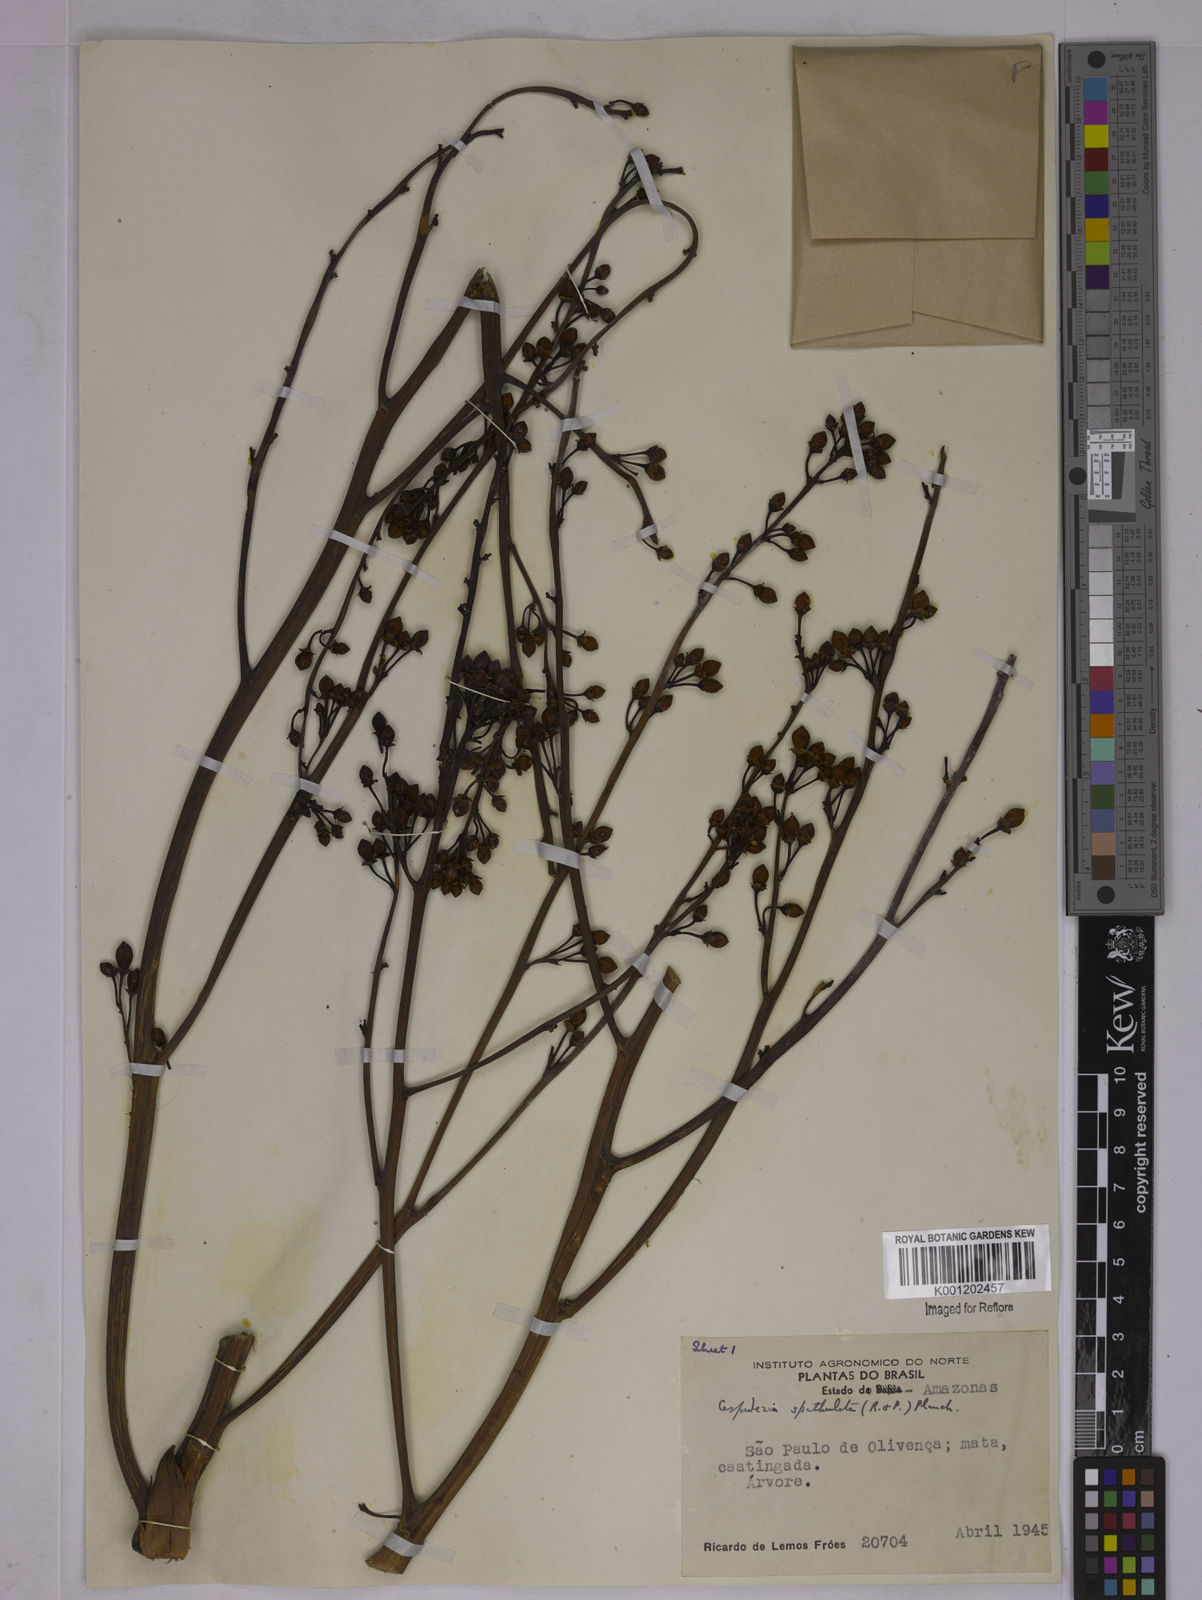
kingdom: Plantae
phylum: Tracheophyta
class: Magnoliopsida
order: Malpighiales
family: Ochnaceae
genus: Cespedesia
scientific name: Cespedesia spathulata
